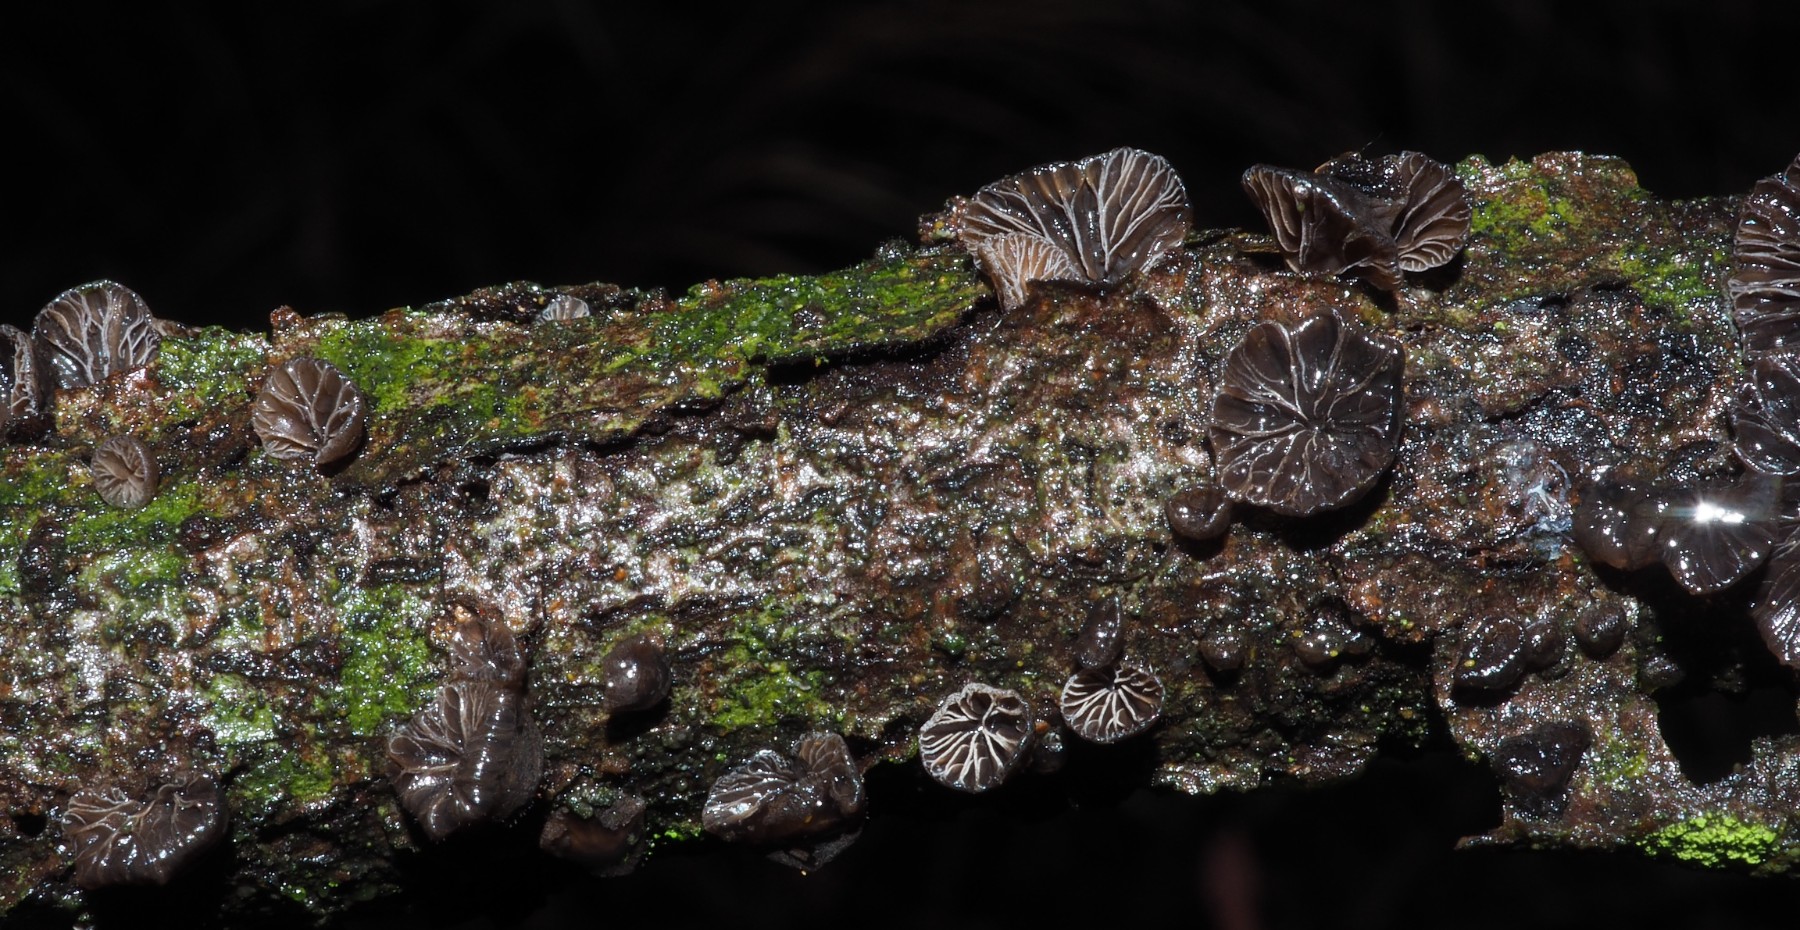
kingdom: Fungi
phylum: Basidiomycota
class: Agaricomycetes
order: Agaricales
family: Tricholomataceae
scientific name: Tricholomataceae
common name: ridderhatfamilien
